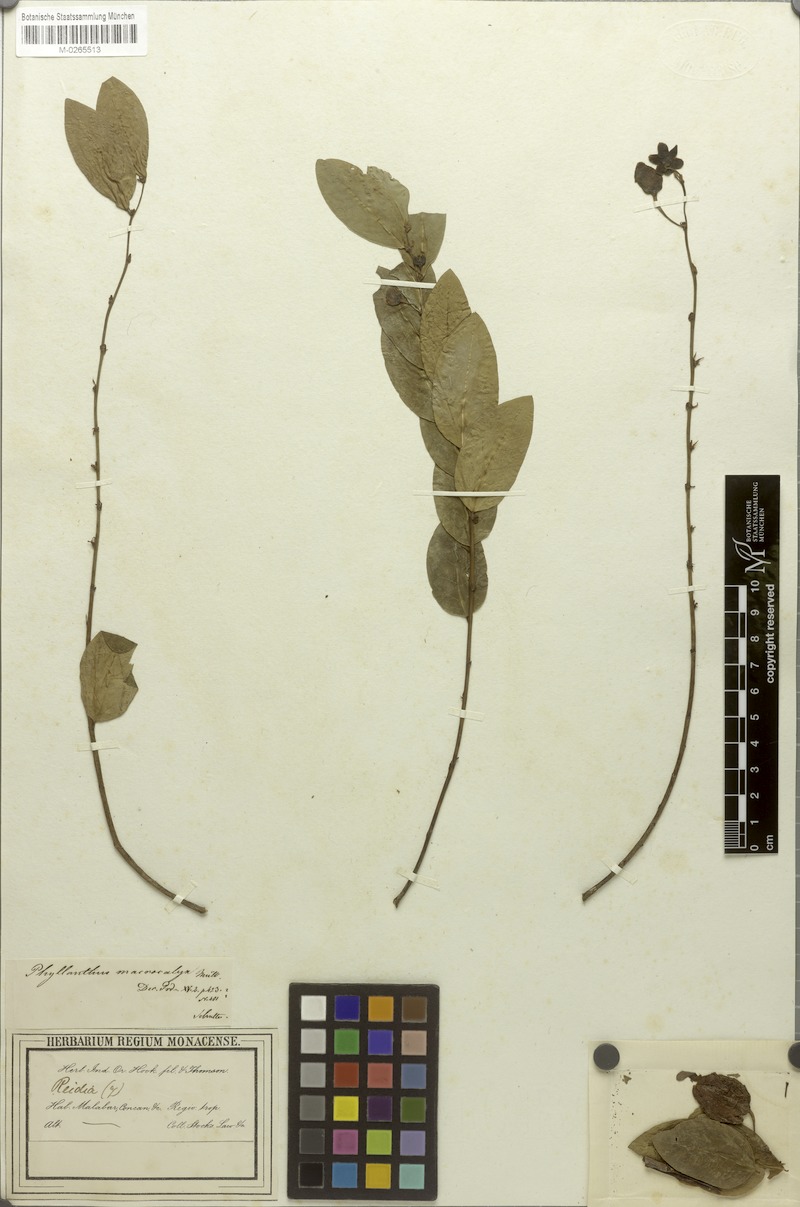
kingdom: Plantae
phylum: Tracheophyta
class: Magnoliopsida
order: Malpighiales
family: Phyllanthaceae
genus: Phyllanthus
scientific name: Phyllanthus macrocalyx
